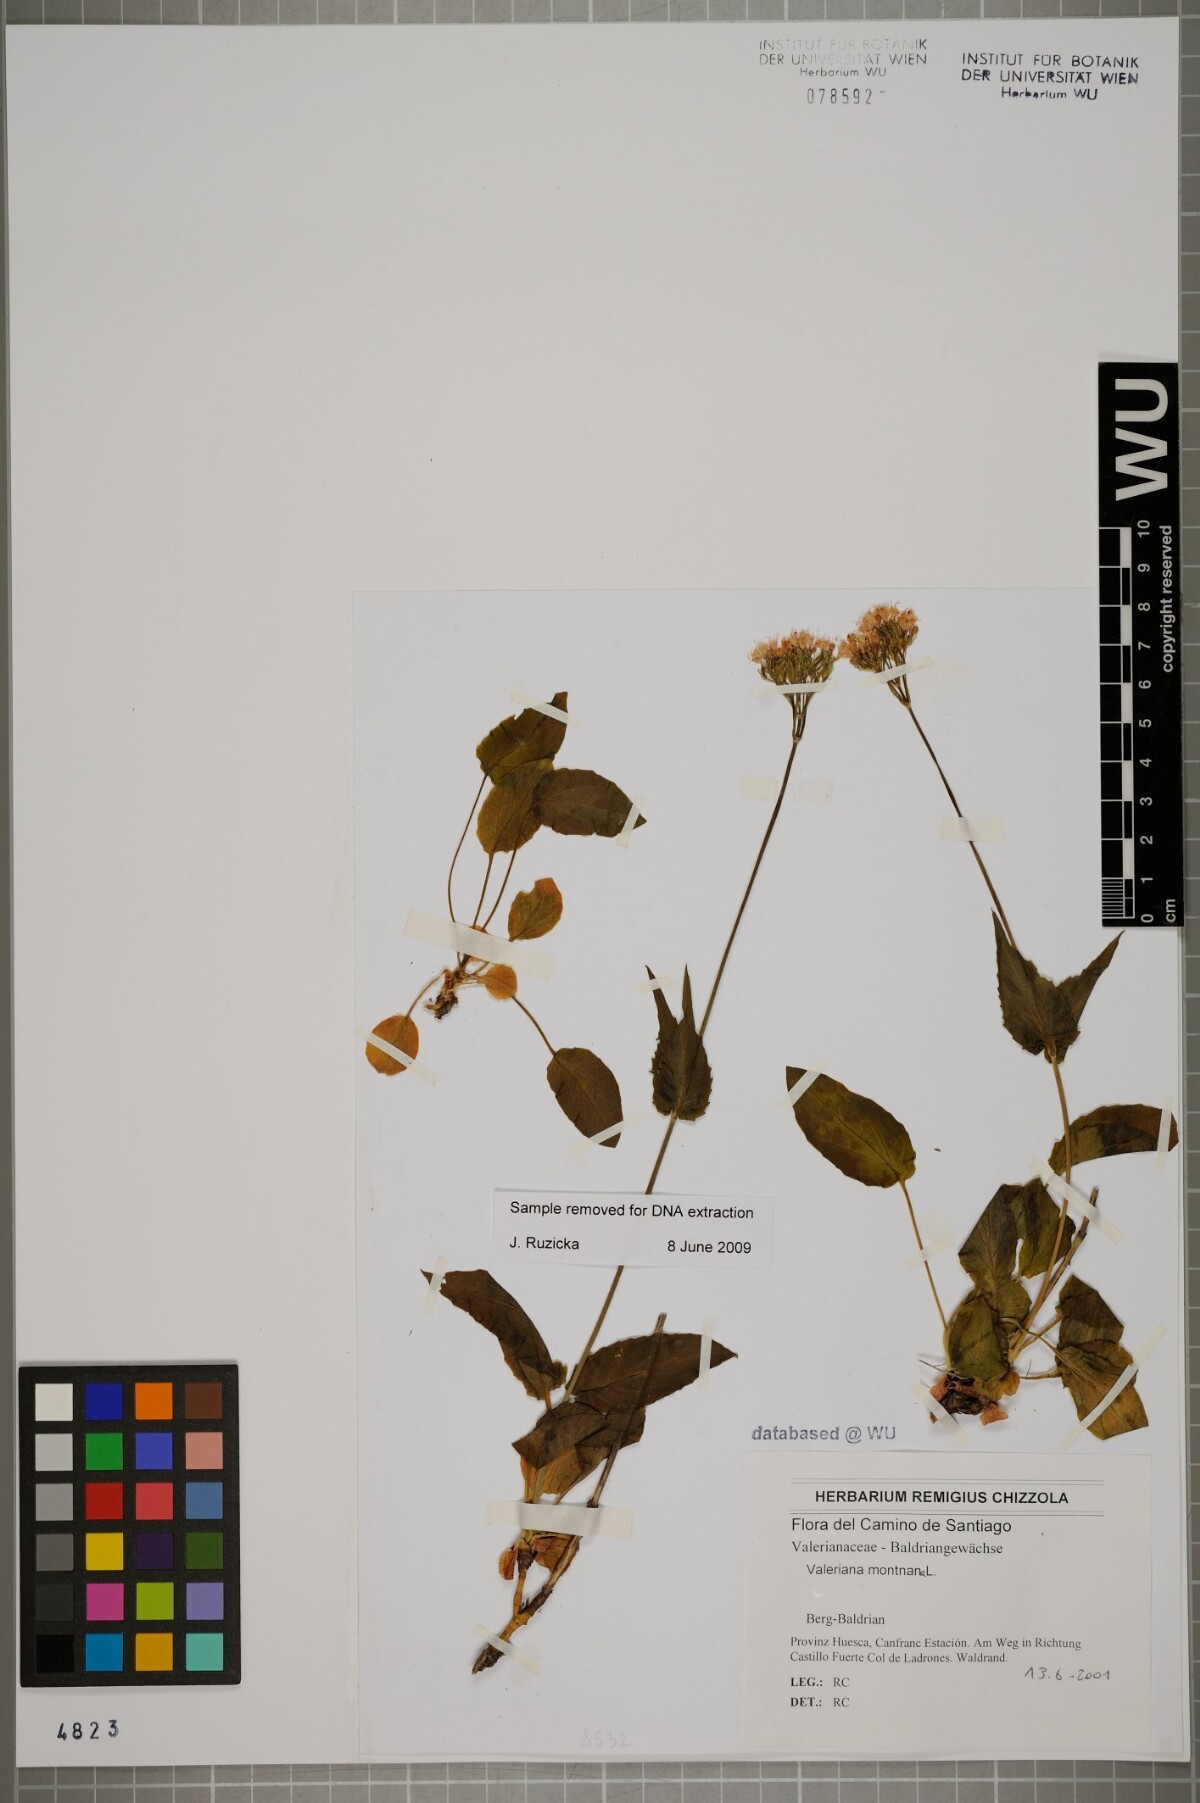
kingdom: Plantae
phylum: Tracheophyta
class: Magnoliopsida
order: Dipsacales
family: Caprifoliaceae
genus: Valeriana
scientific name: Valeriana montana
